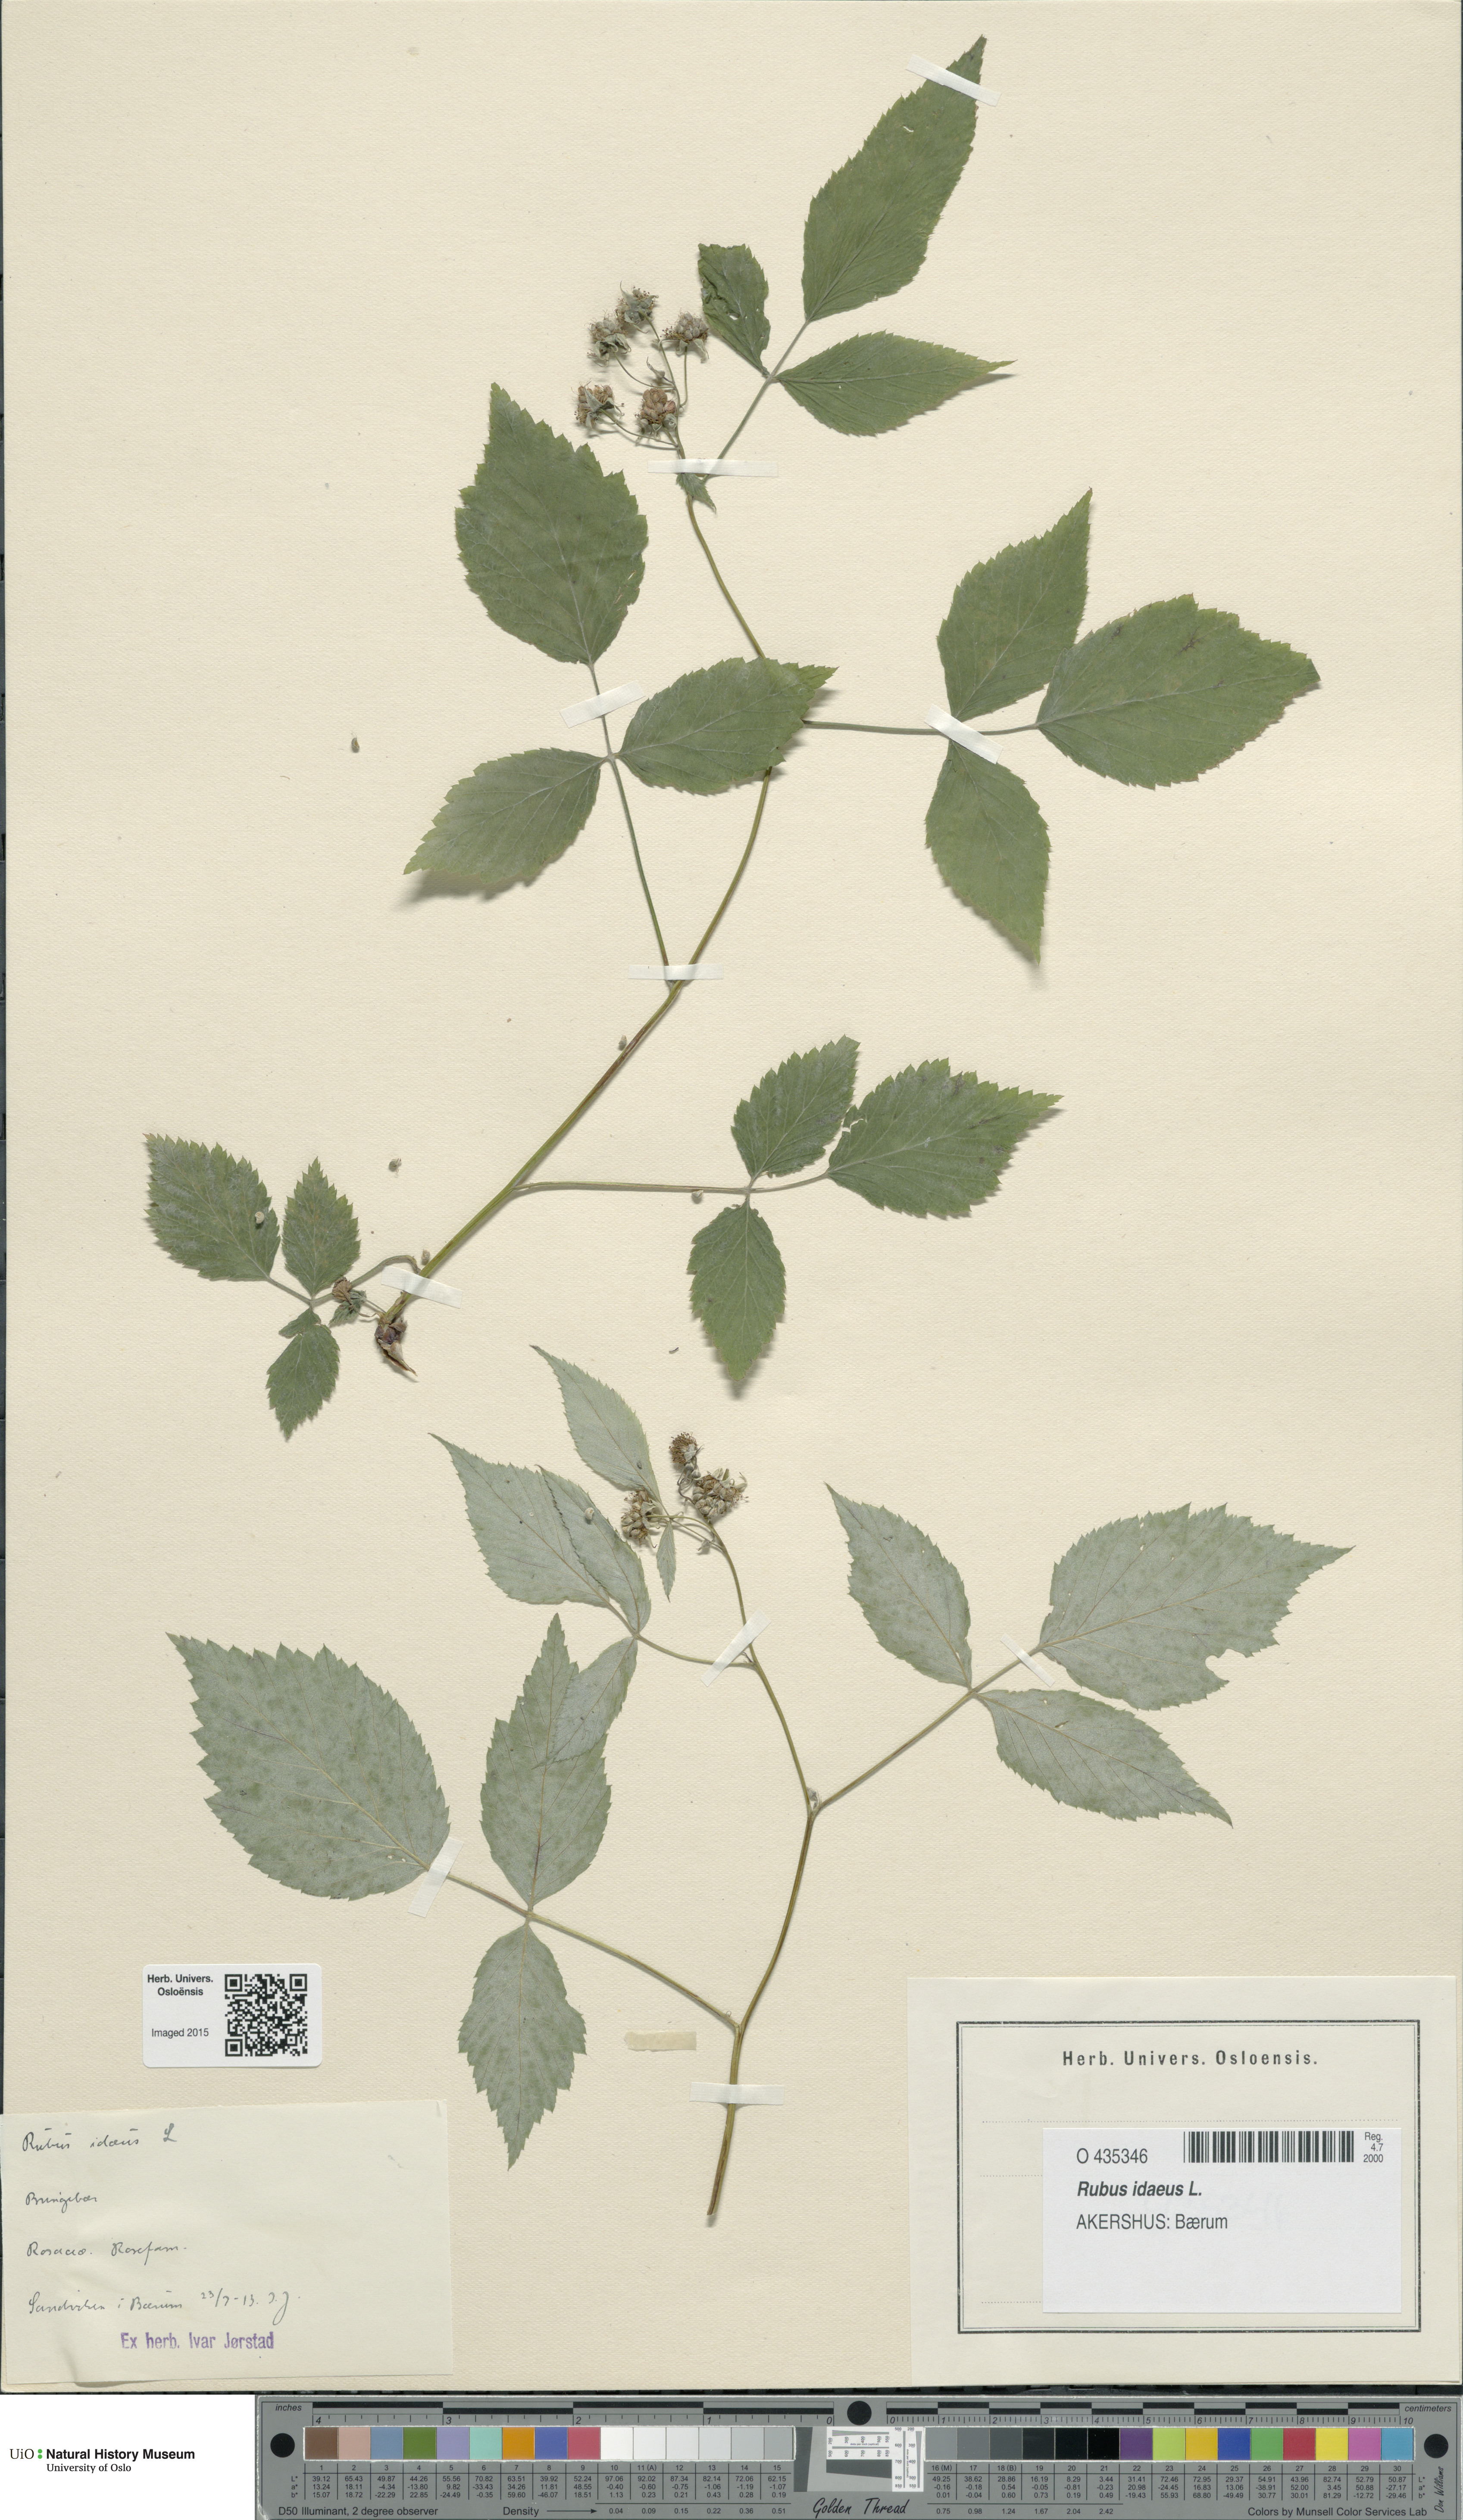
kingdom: Plantae
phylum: Tracheophyta
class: Magnoliopsida
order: Rosales
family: Rosaceae
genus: Rubus
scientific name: Rubus idaeus
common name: Raspberry
